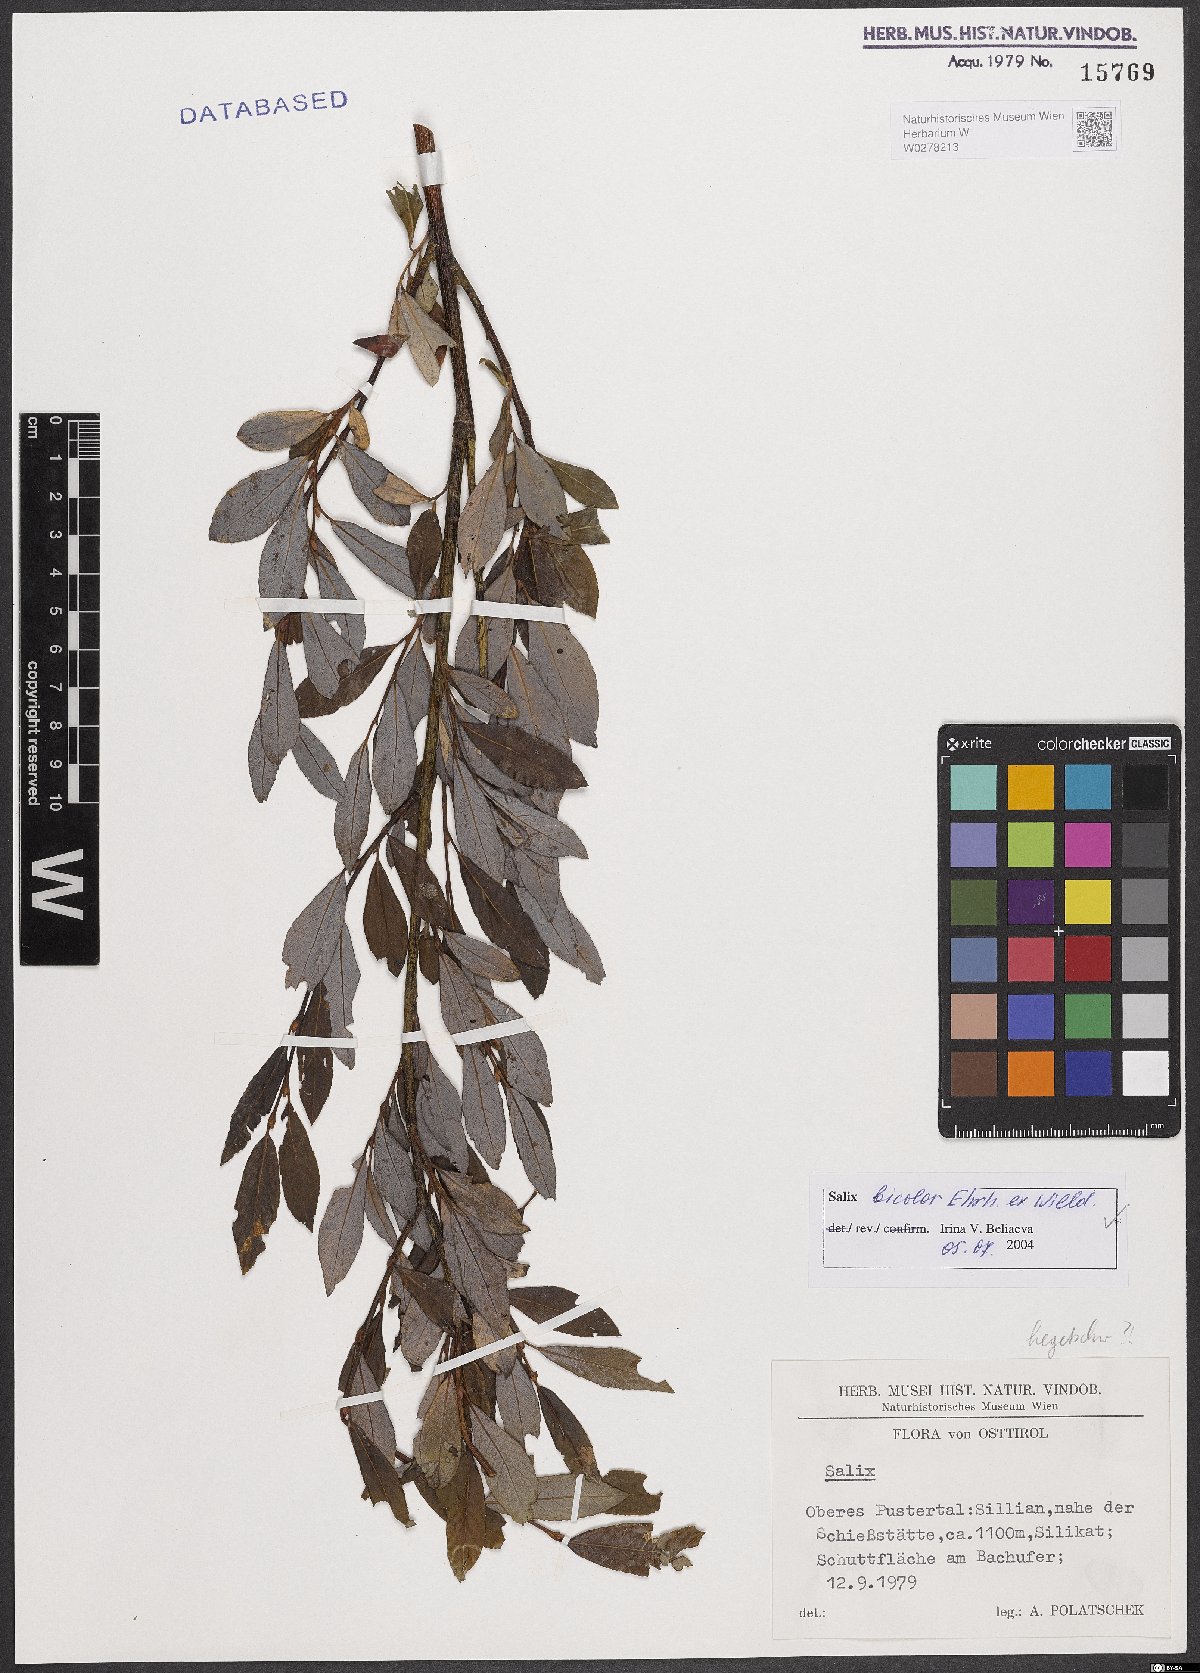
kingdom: Plantae
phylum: Tracheophyta
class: Magnoliopsida
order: Malpighiales
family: Salicaceae
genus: Salix
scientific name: Salix bicolor
